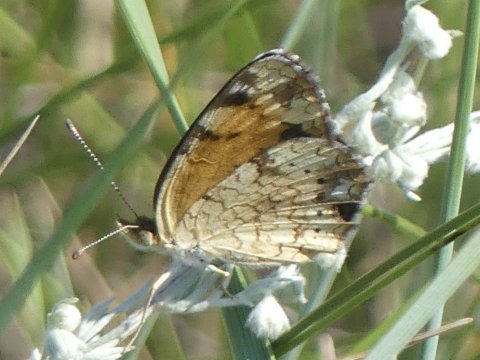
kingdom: Animalia
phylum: Arthropoda
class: Insecta
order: Lepidoptera
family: Nymphalidae
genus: Phyciodes
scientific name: Phyciodes
